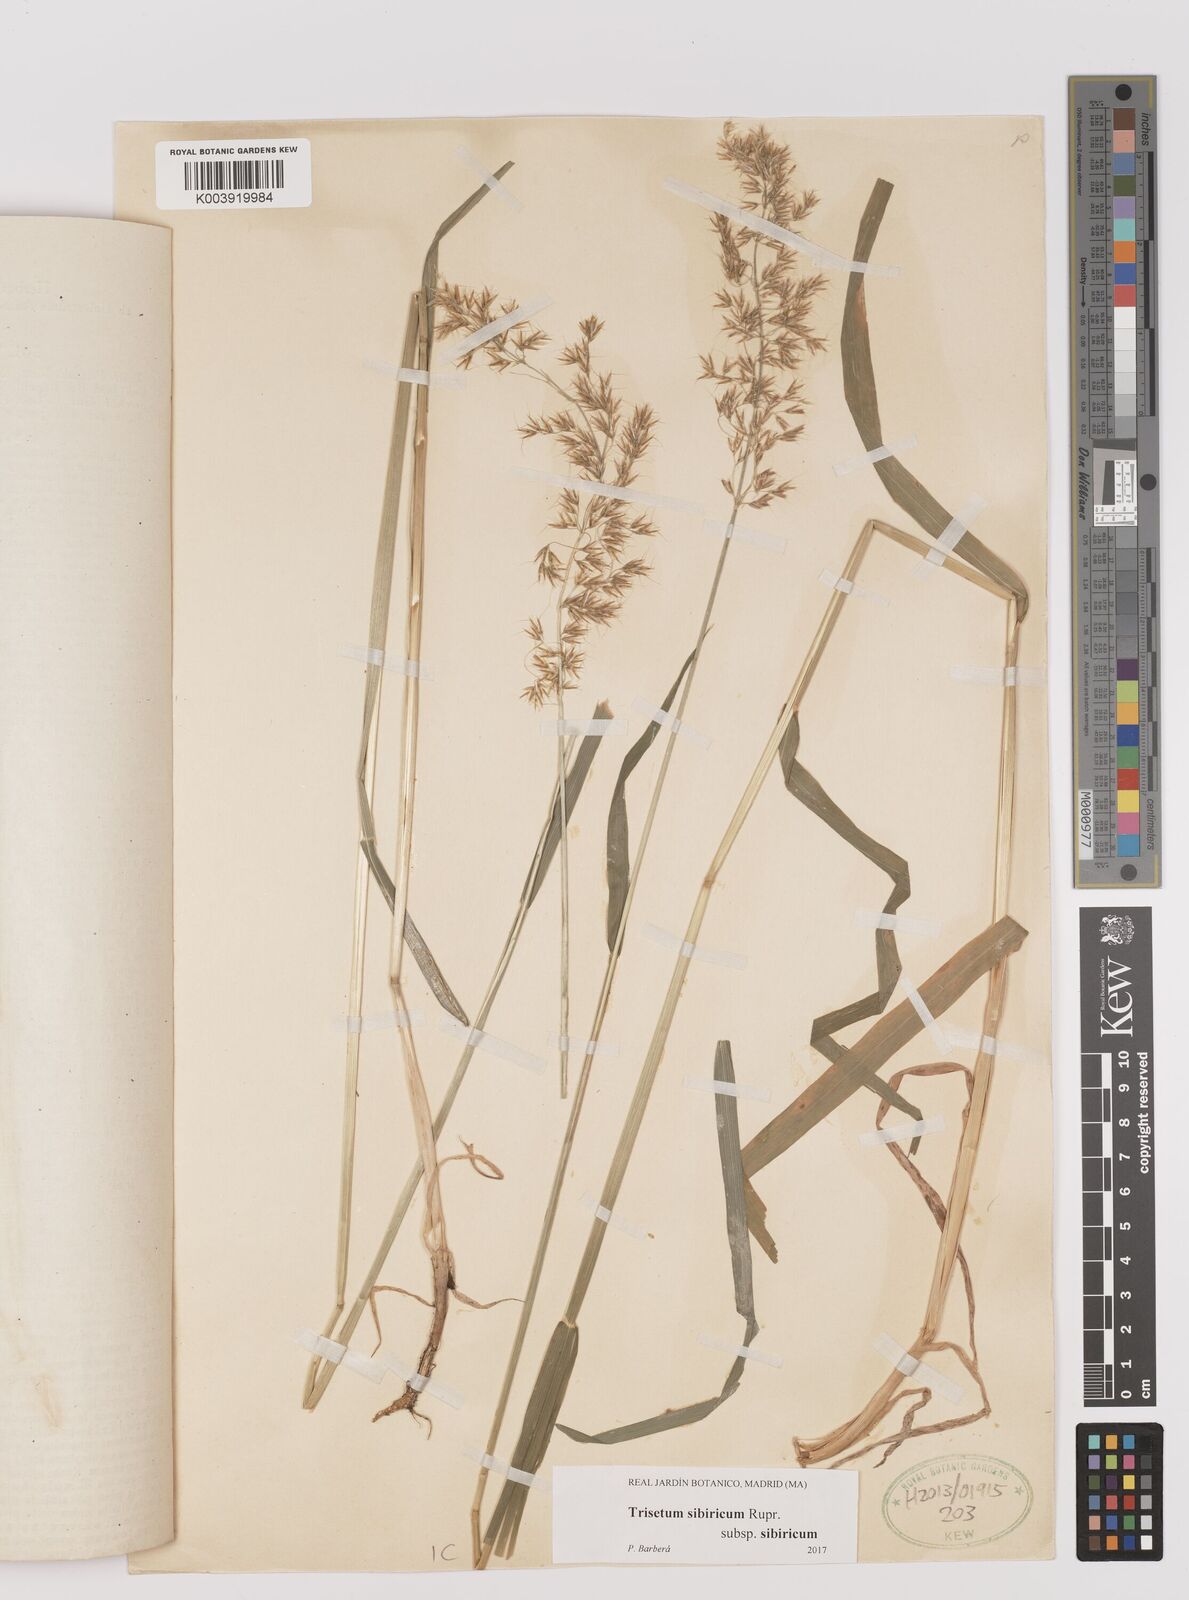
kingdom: Plantae
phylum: Tracheophyta
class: Liliopsida
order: Poales
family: Poaceae
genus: Sibirotrisetum
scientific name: Sibirotrisetum sibiricum
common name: Siberian false oat
